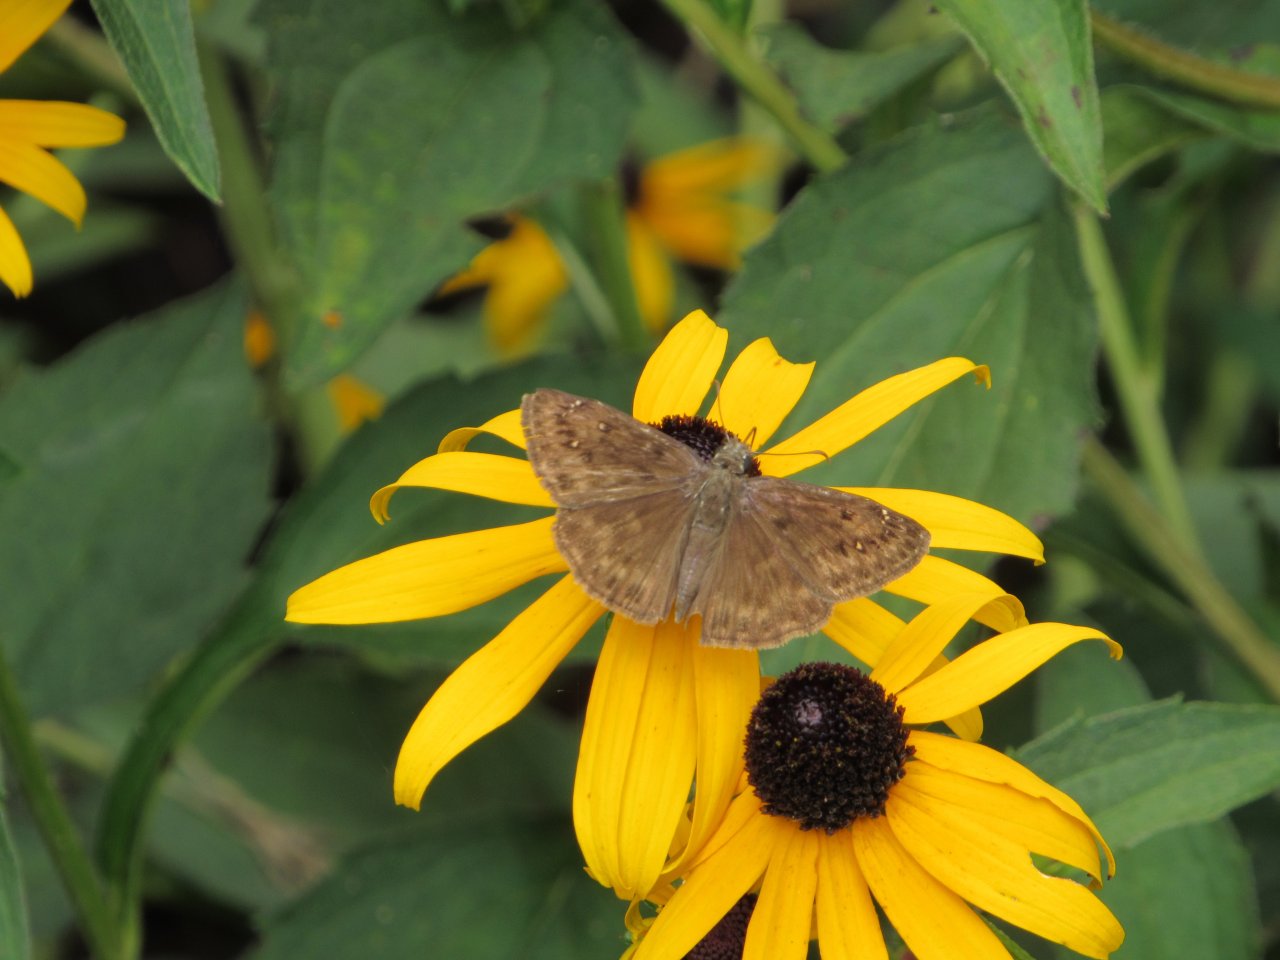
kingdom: Animalia
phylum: Arthropoda
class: Insecta
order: Lepidoptera
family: Hesperiidae
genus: Gesta
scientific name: Gesta
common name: Horace's Duskywing
